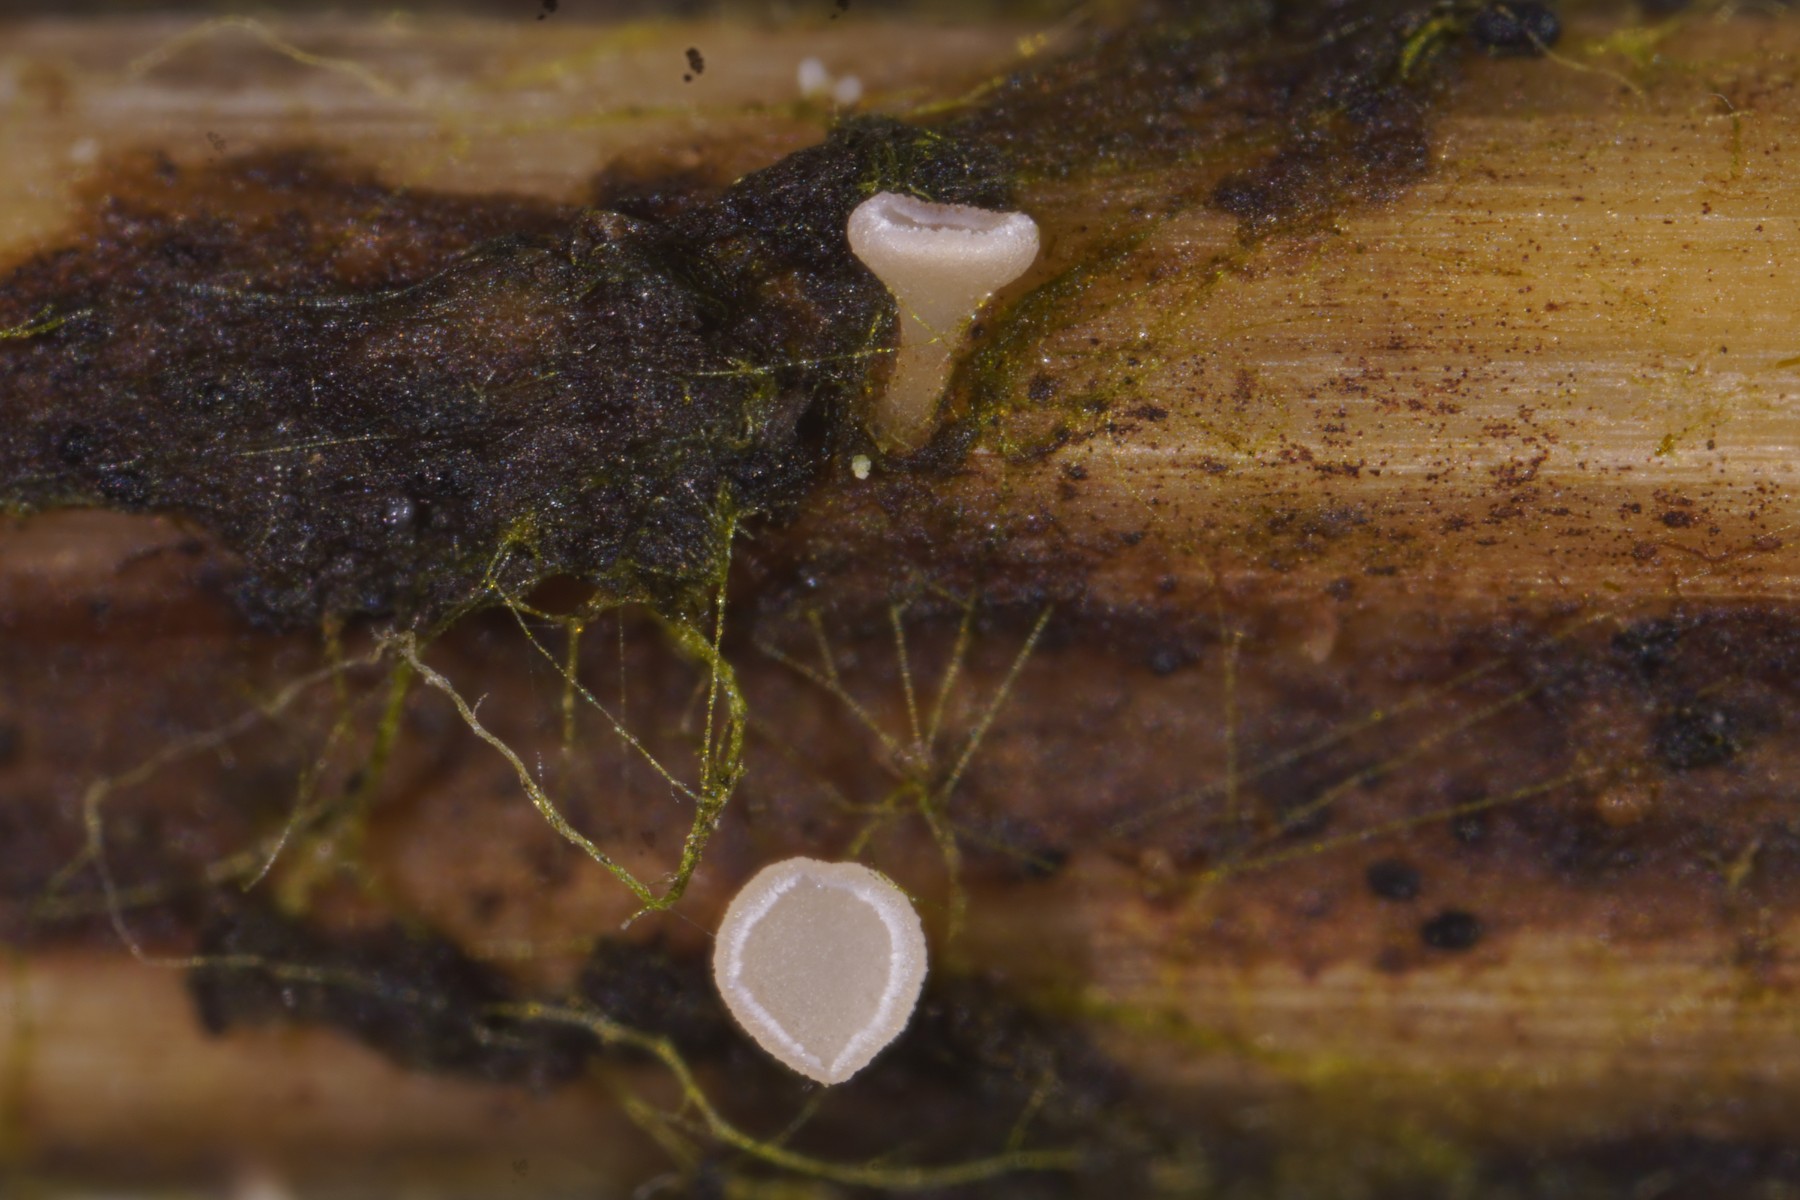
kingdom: Fungi
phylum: Ascomycota
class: Leotiomycetes
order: Helotiales
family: Helotiaceae
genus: Cyathicula
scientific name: Cyathicula cyathoidea
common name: pokal-stilkskive
